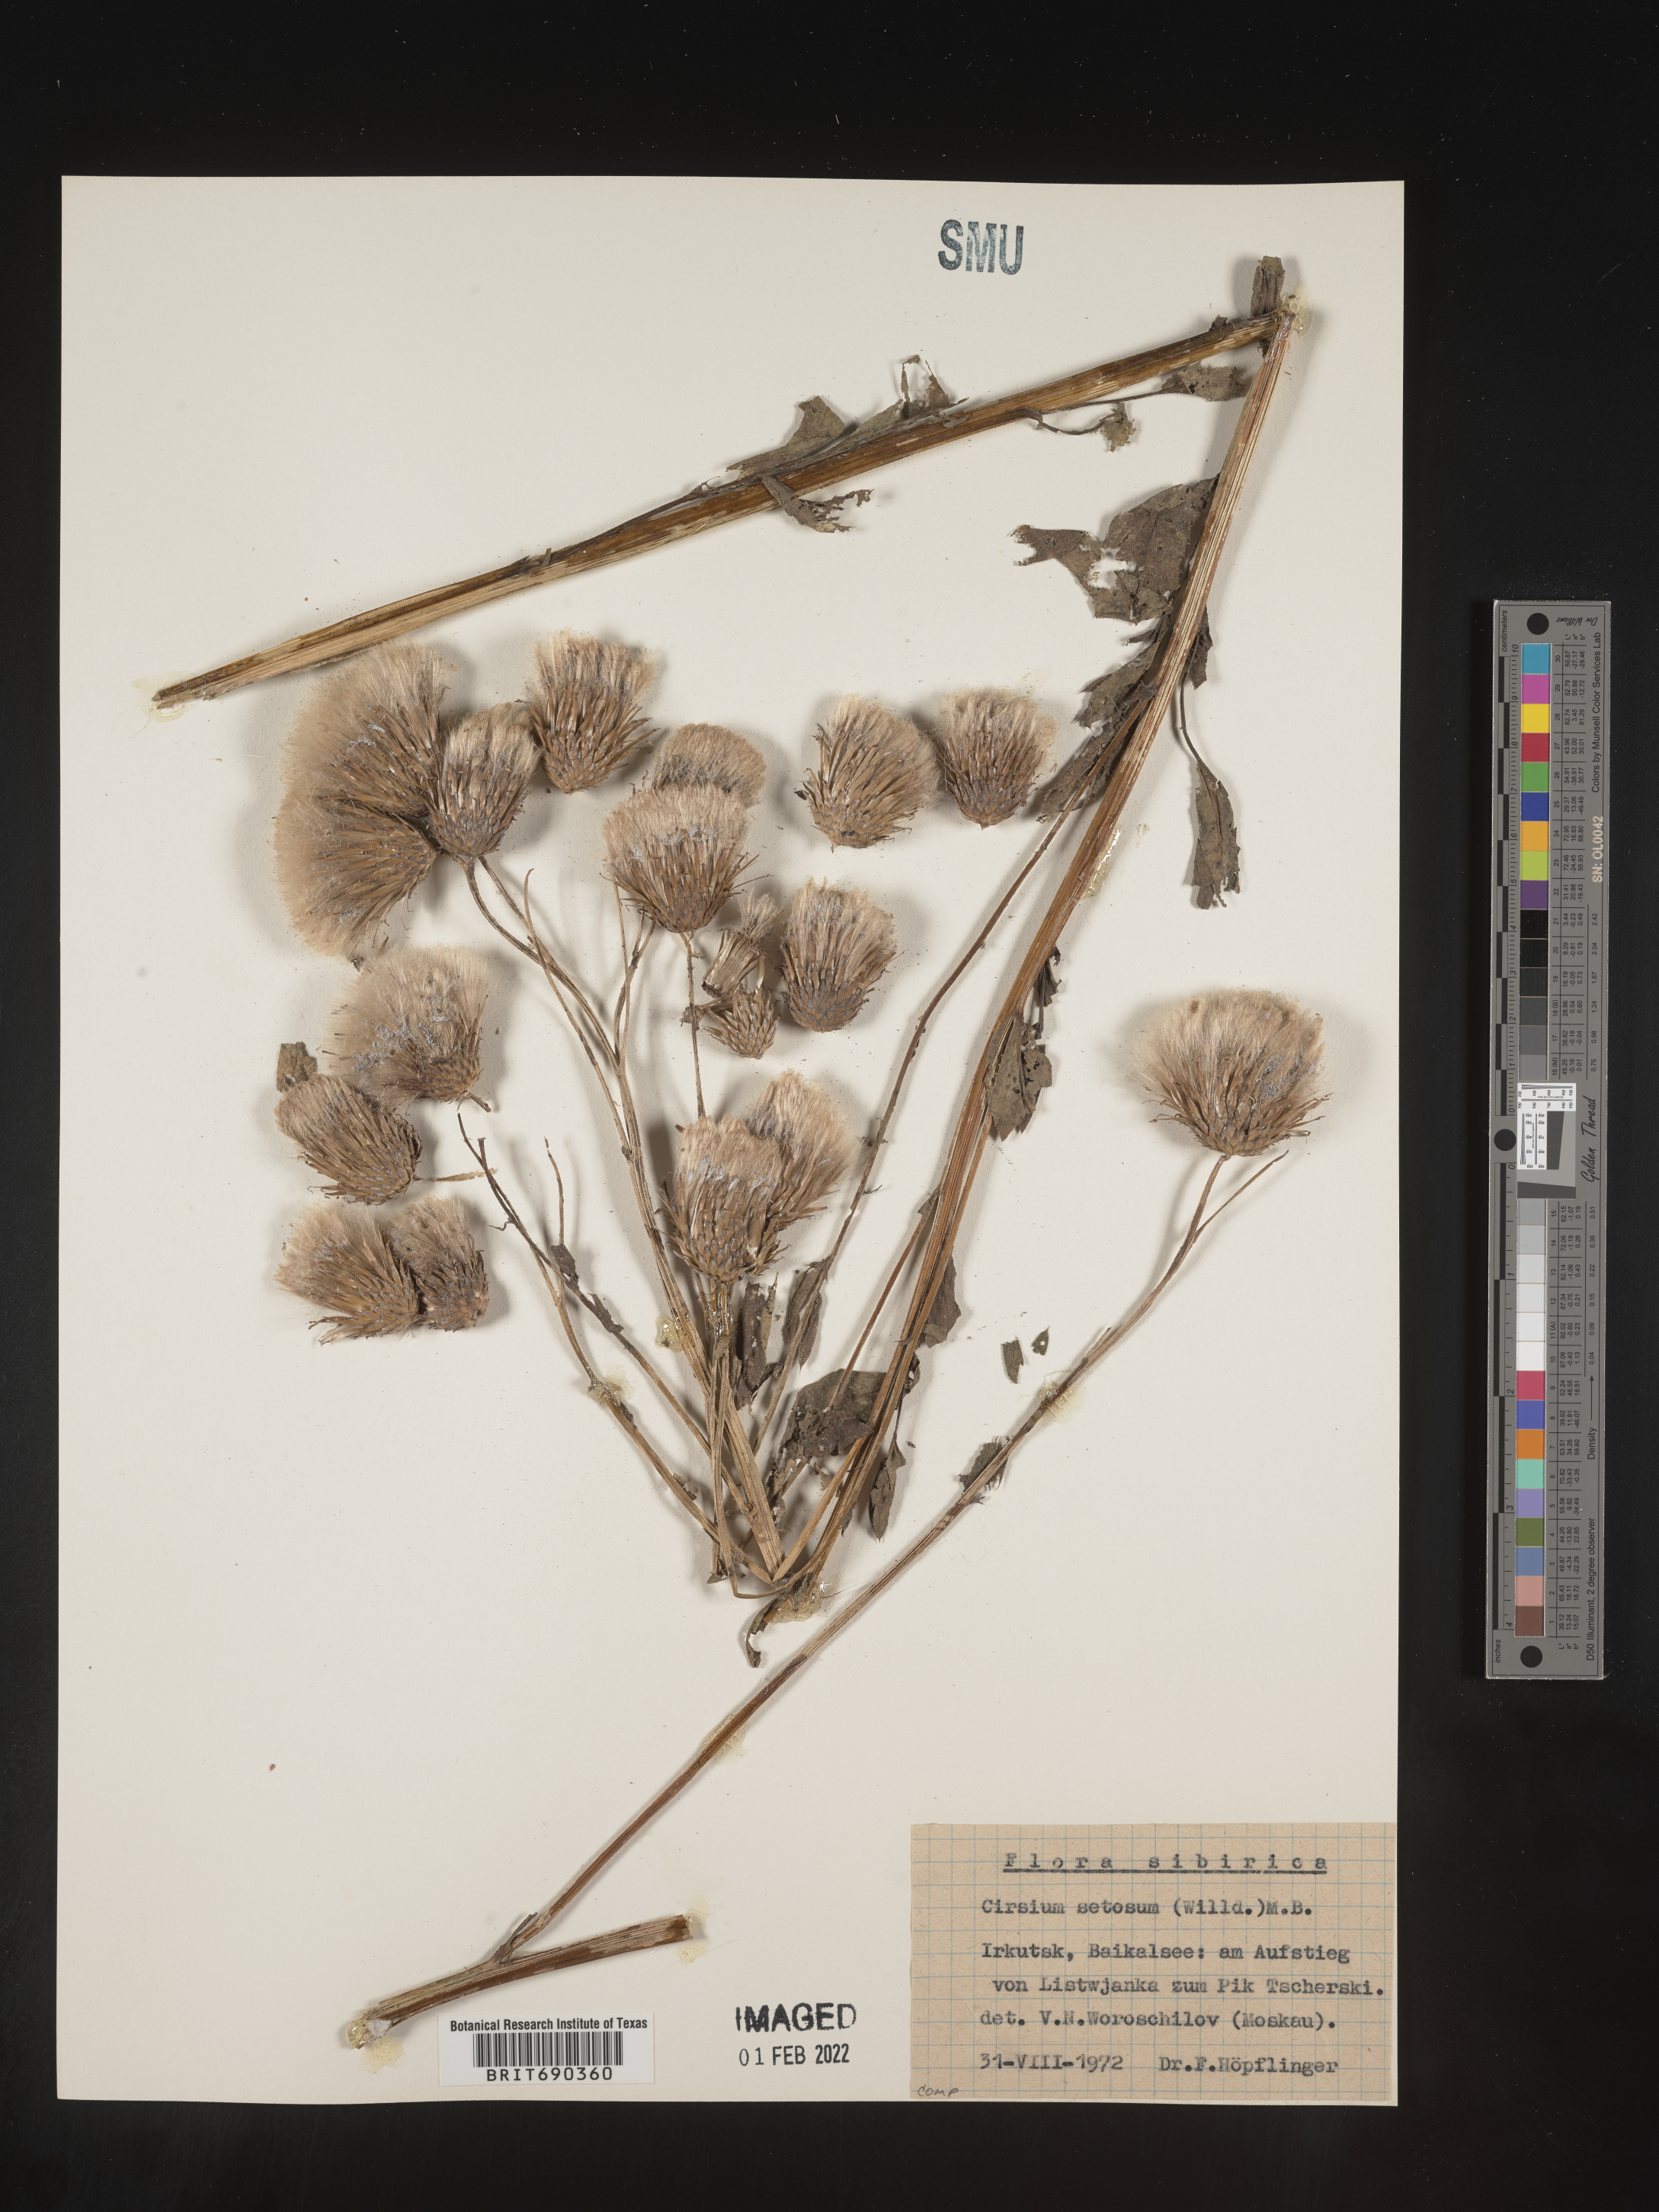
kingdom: Plantae
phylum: Tracheophyta
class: Magnoliopsida
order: Asterales
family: Asteraceae
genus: Cirsium
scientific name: Cirsium
